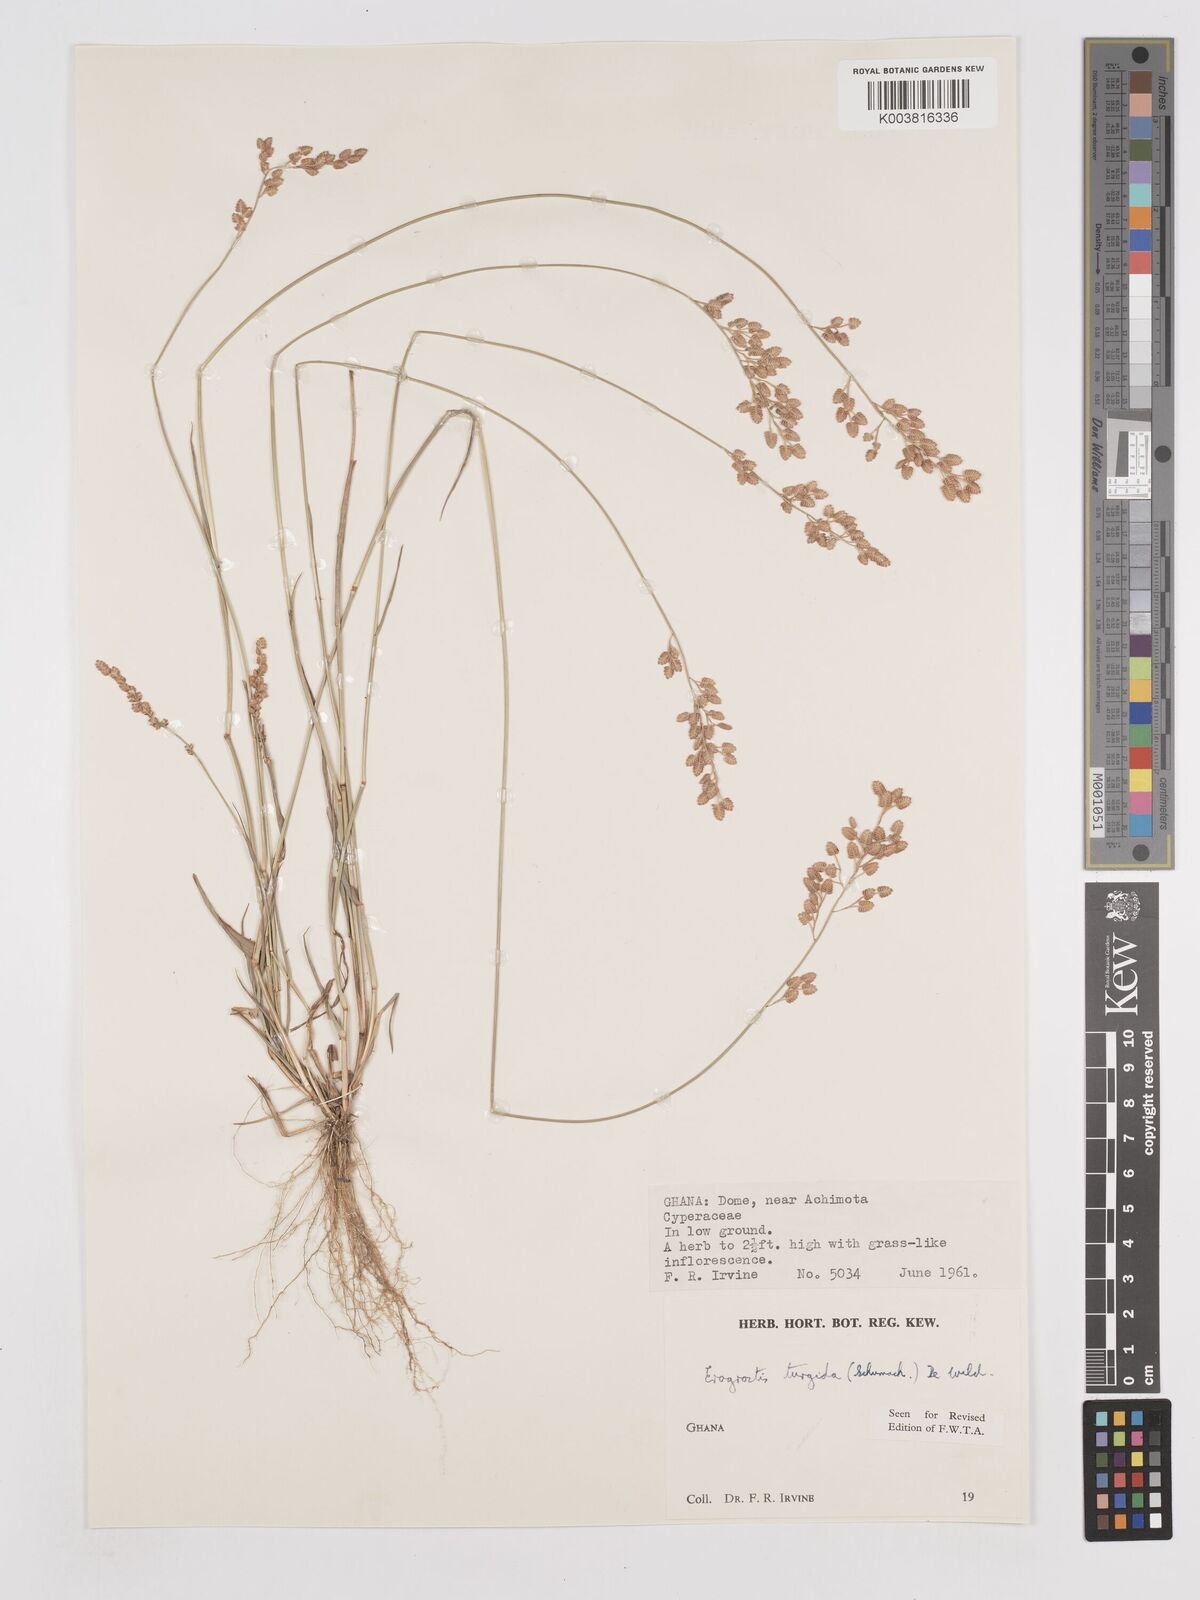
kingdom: Plantae
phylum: Tracheophyta
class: Liliopsida
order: Poales
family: Poaceae
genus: Eragrostis
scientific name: Eragrostis turgida
